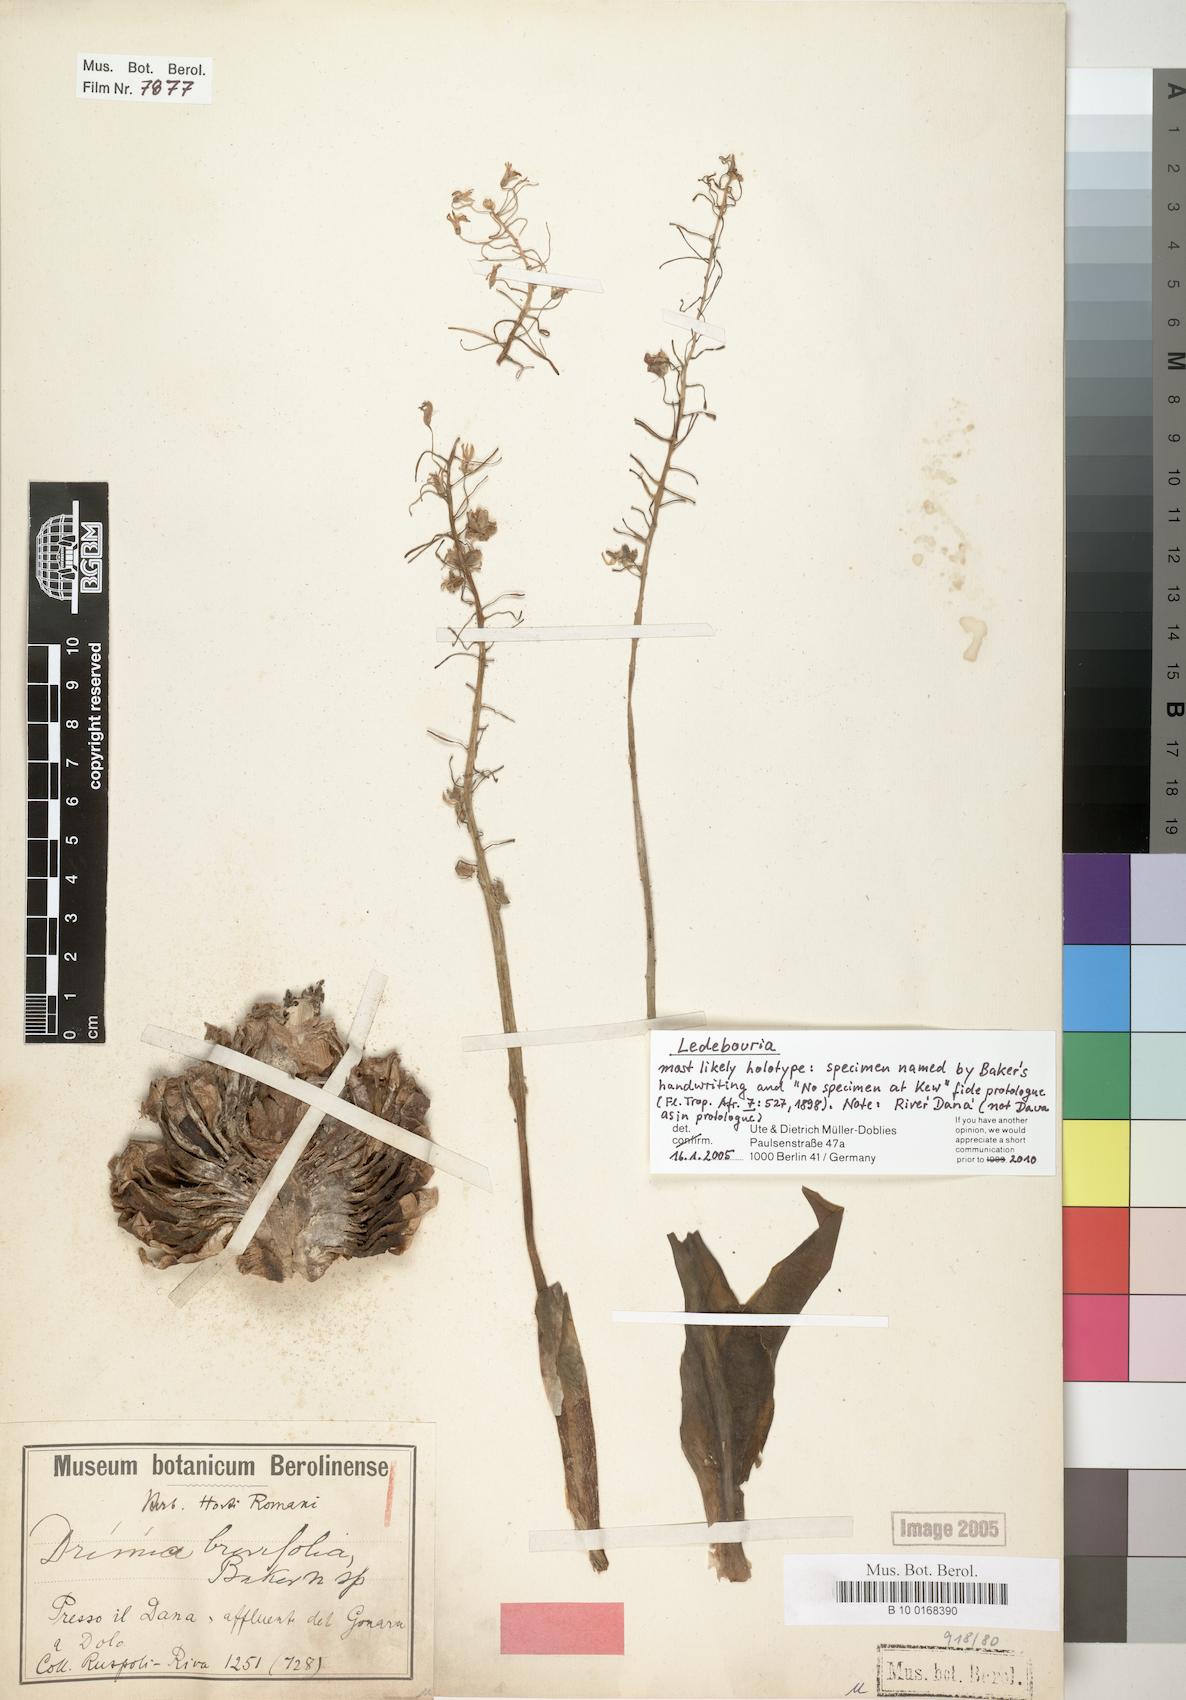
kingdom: Plantae
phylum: Tracheophyta
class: Liliopsida
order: Asparagales
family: Asparagaceae
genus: Ledebouria
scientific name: Ledebouria revoluta
